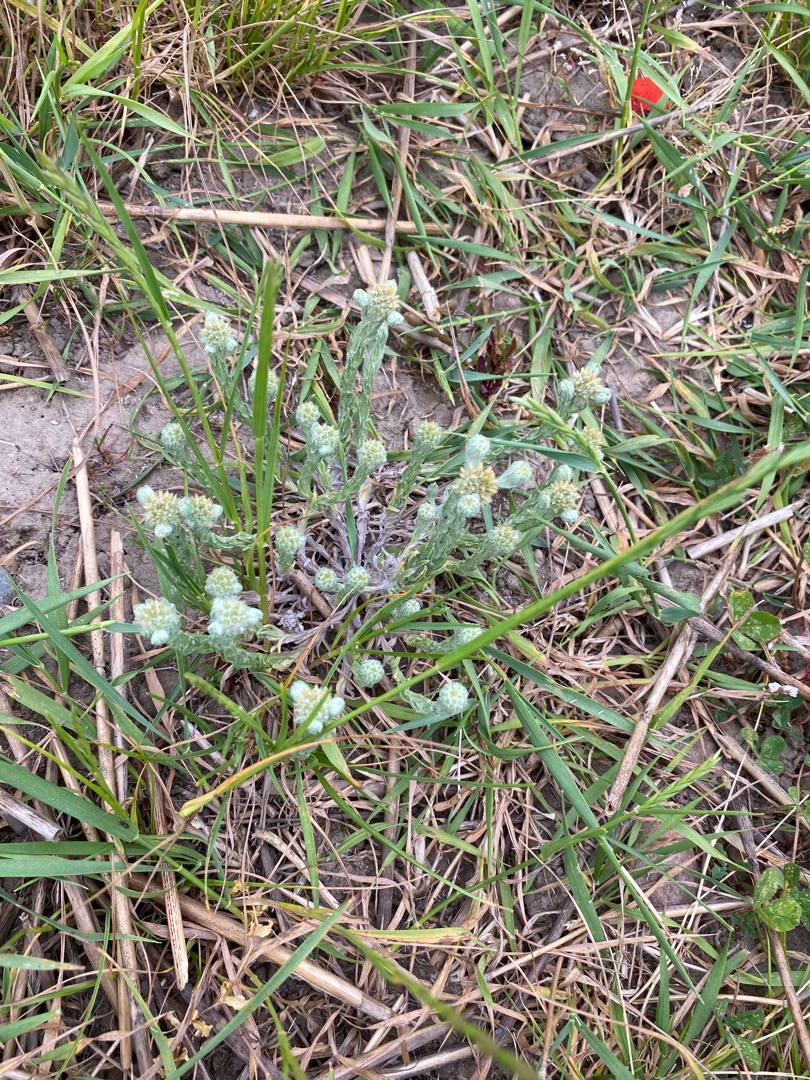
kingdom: Plantae
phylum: Tracheophyta
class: Magnoliopsida
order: Asterales
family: Asteraceae
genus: Filago
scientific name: Filago germanica
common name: Kugle-museurt
